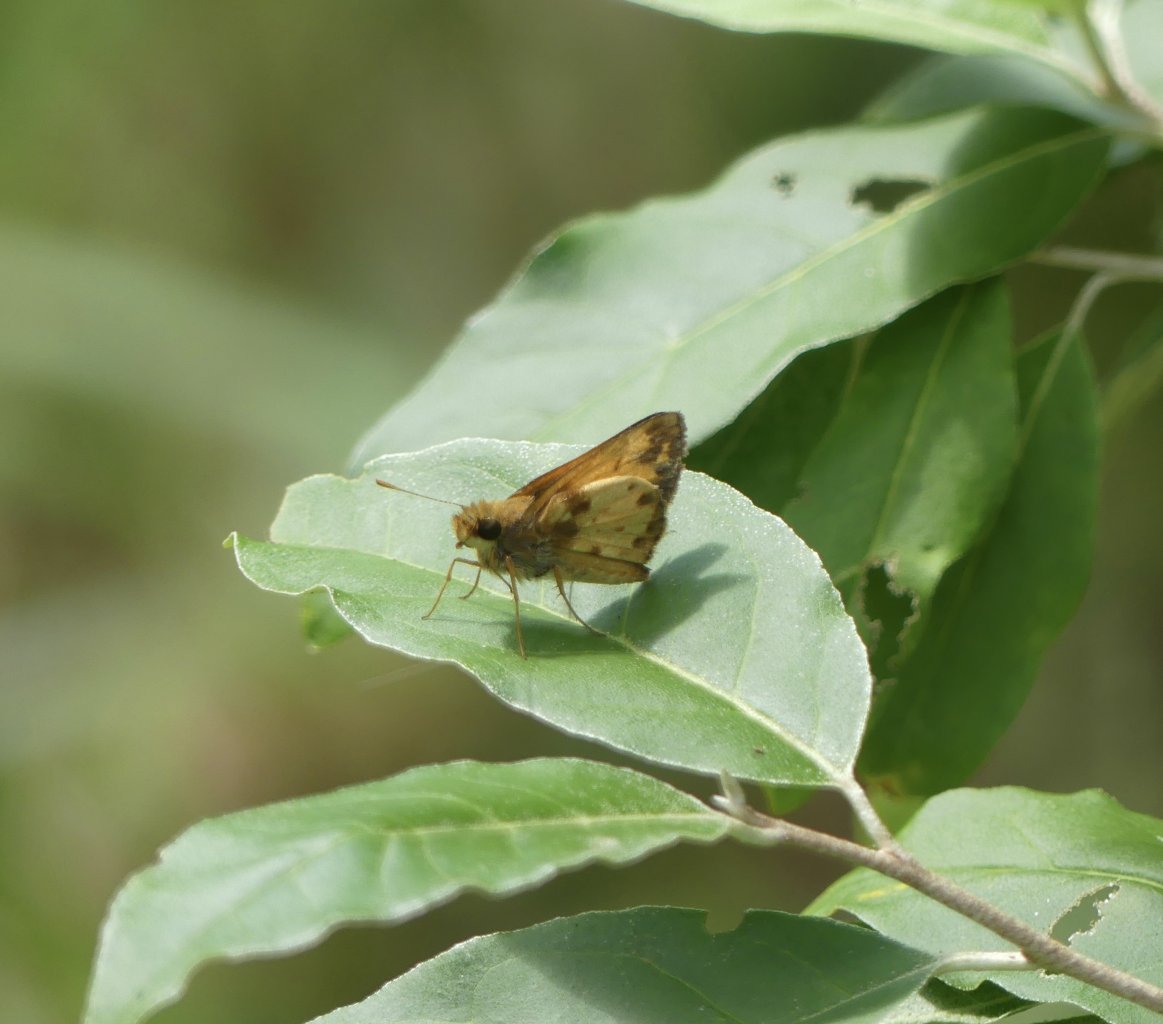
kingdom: Animalia
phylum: Arthropoda
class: Insecta
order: Lepidoptera
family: Hesperiidae
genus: Lon
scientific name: Lon zabulon
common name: Zabulon Skipper
